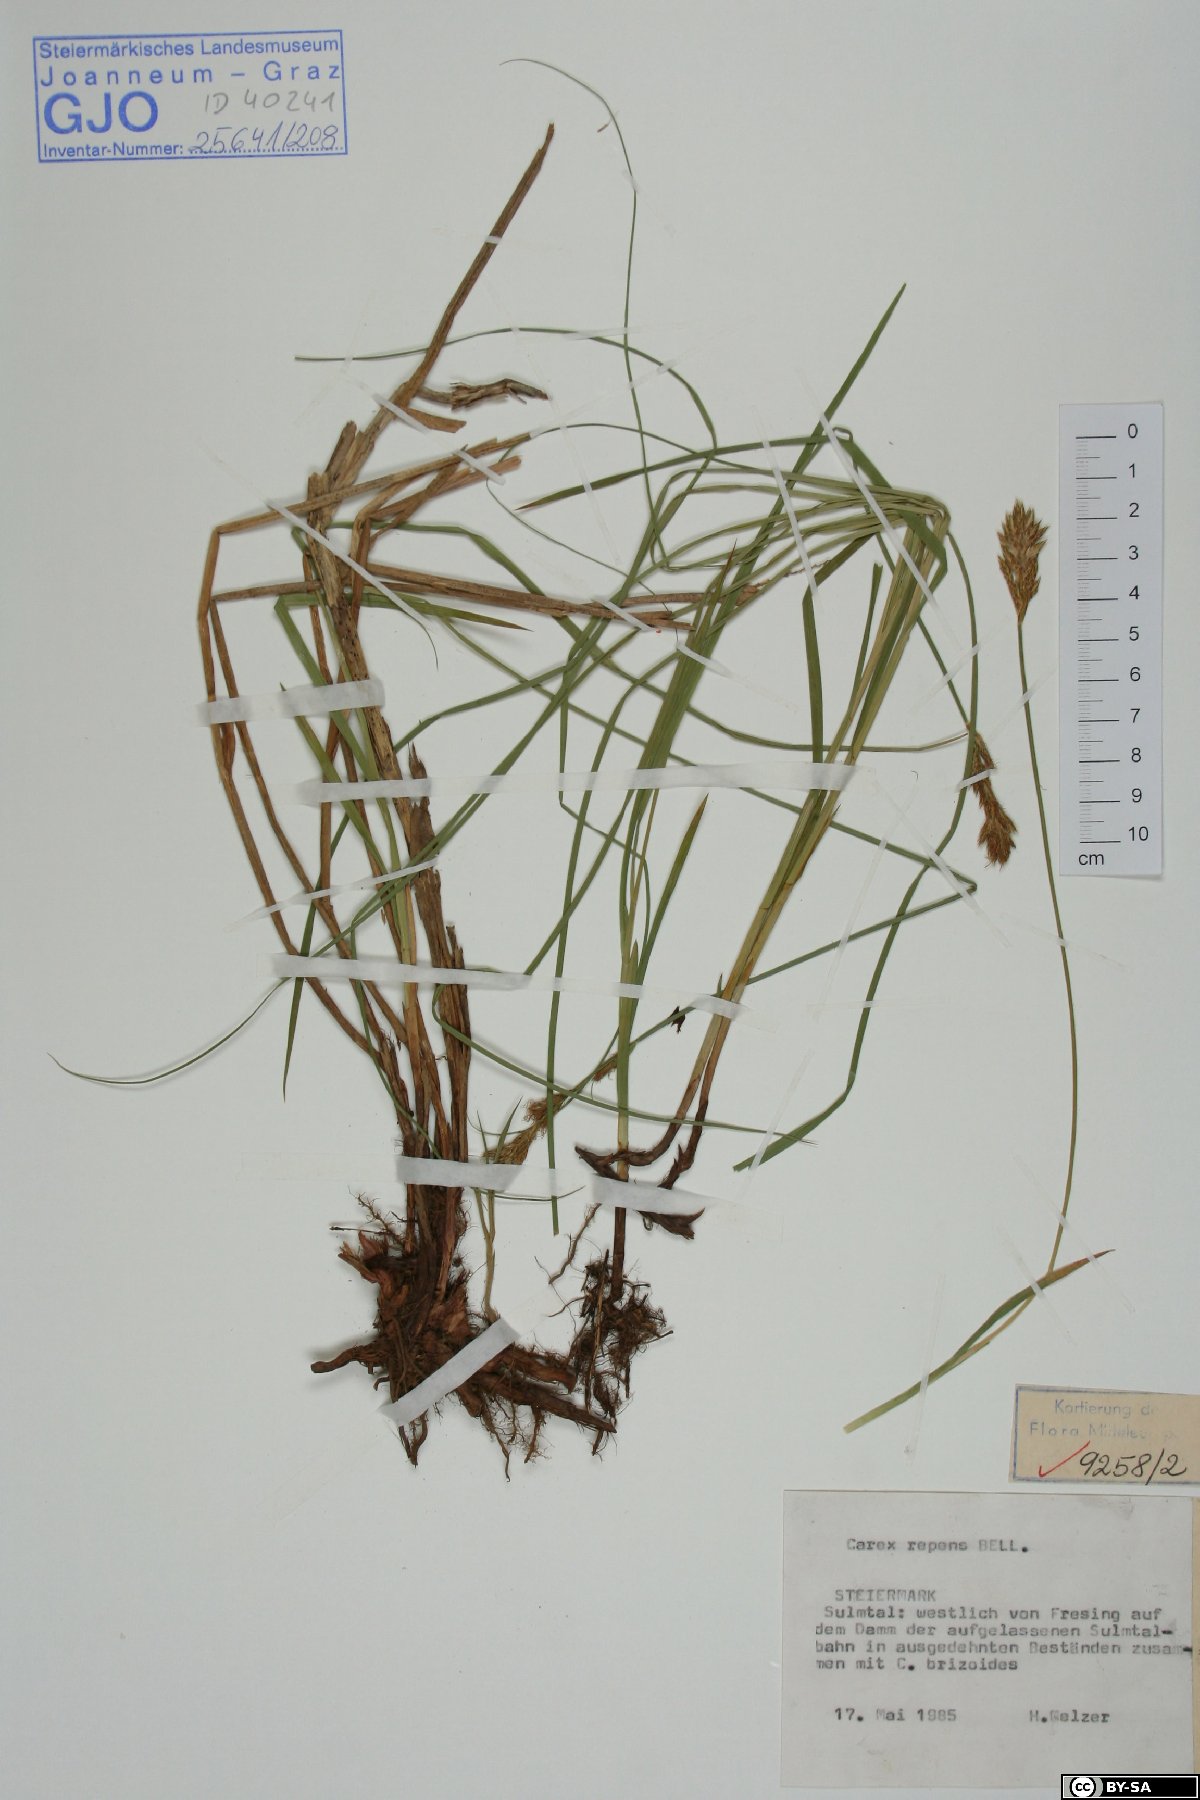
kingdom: Plantae
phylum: Tracheophyta
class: Liliopsida
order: Poales
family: Cyperaceae
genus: Carex
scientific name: Carex repens
